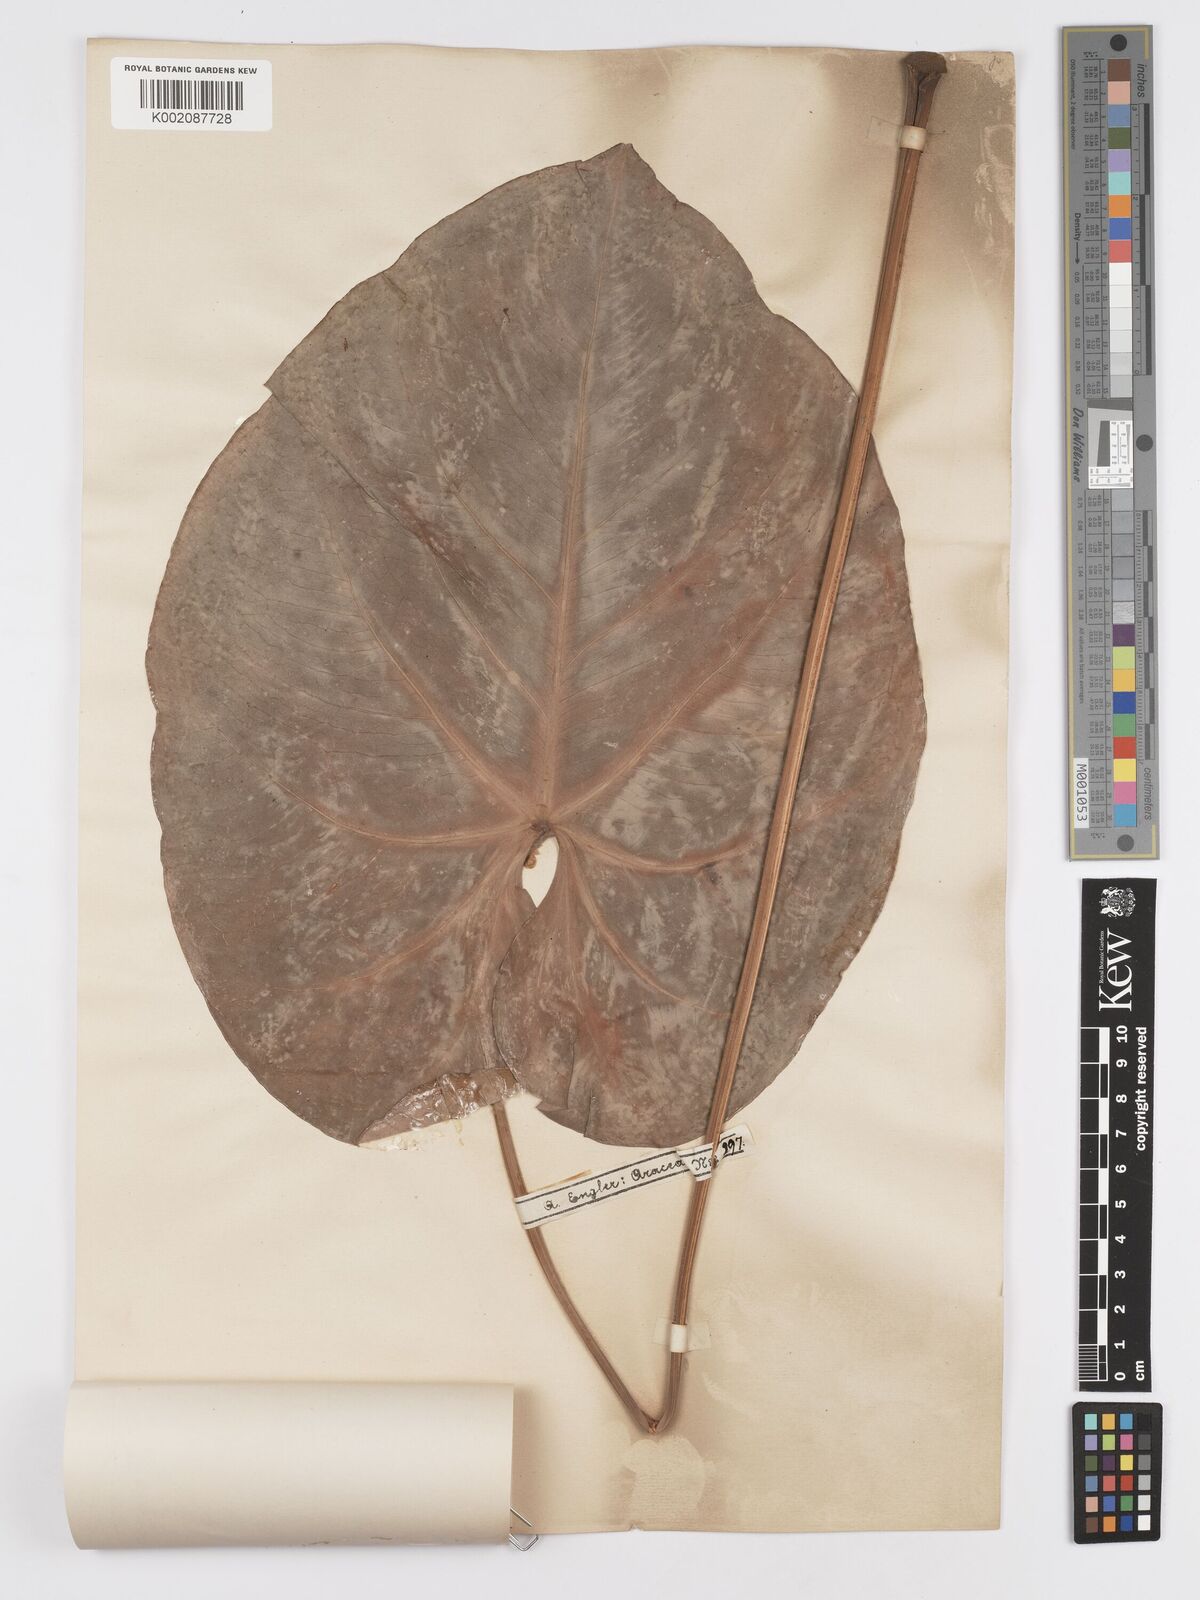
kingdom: Plantae
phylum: Tracheophyta
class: Liliopsida
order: Alismatales
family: Araceae
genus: Anthurium
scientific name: Anthurium lindenianum
